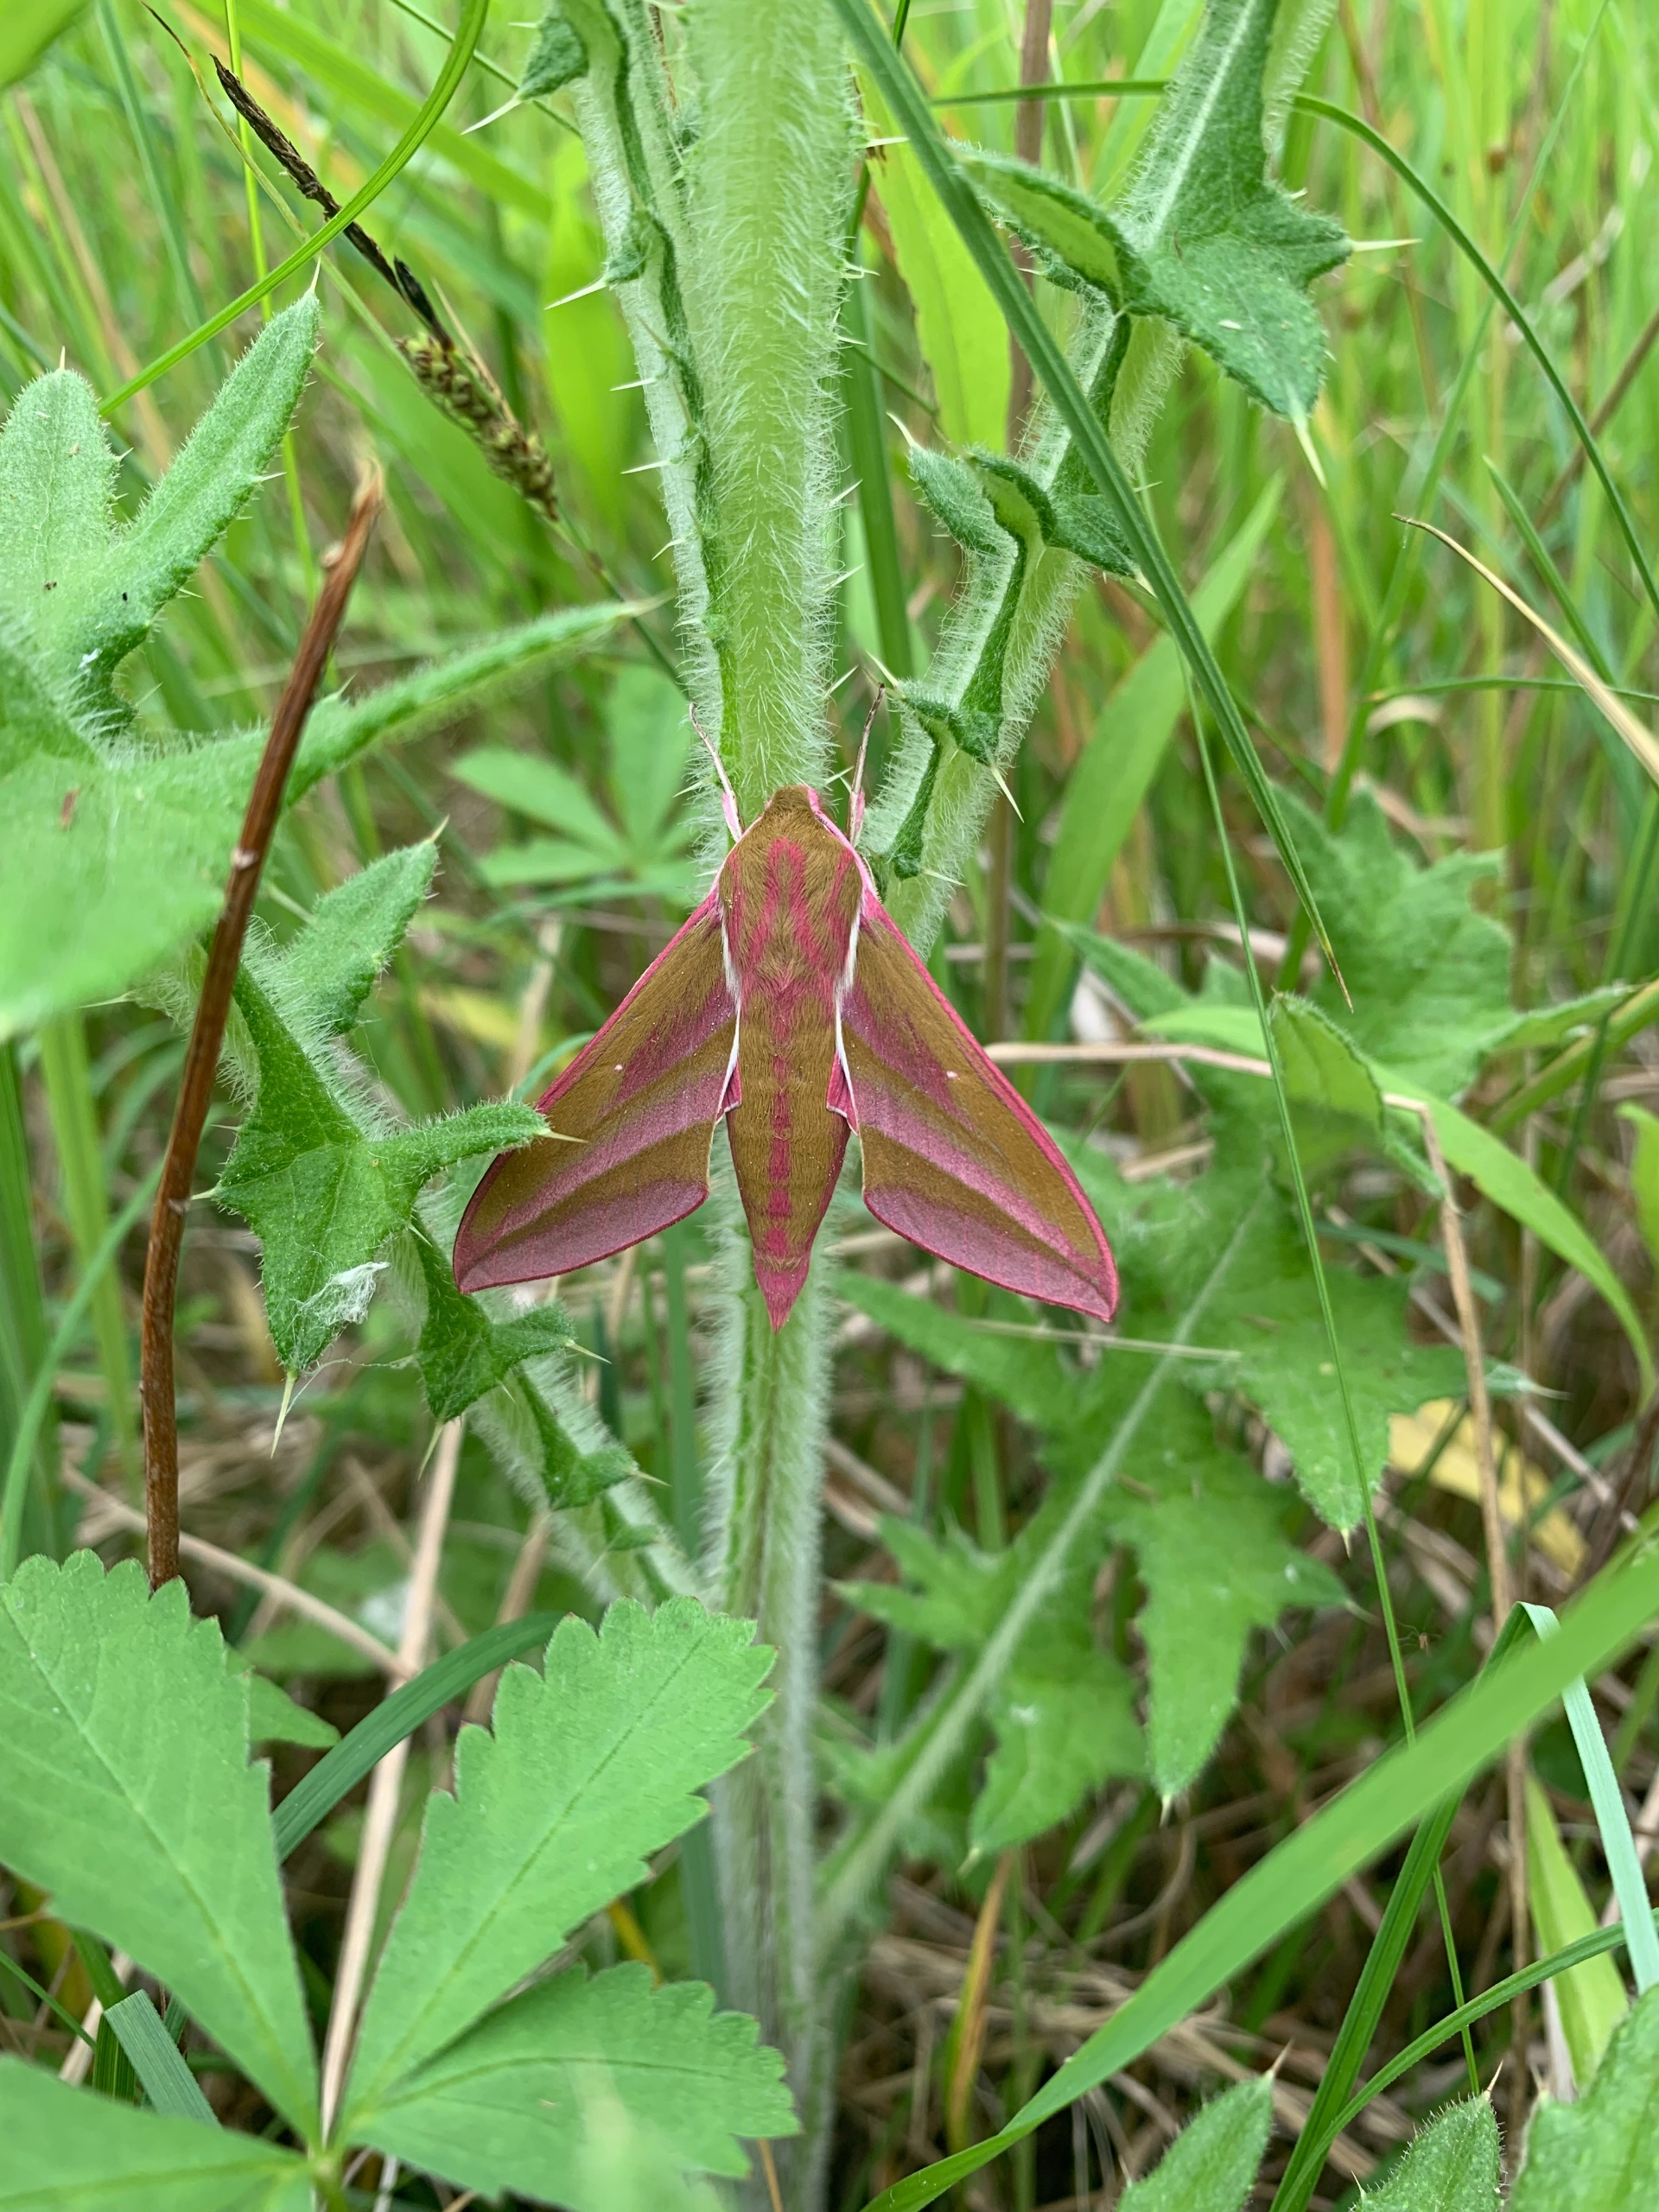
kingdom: Animalia
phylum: Arthropoda
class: Insecta
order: Lepidoptera
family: Sphingidae
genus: Deilephila
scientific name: Deilephila elpenor
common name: Dueurtsværmer
